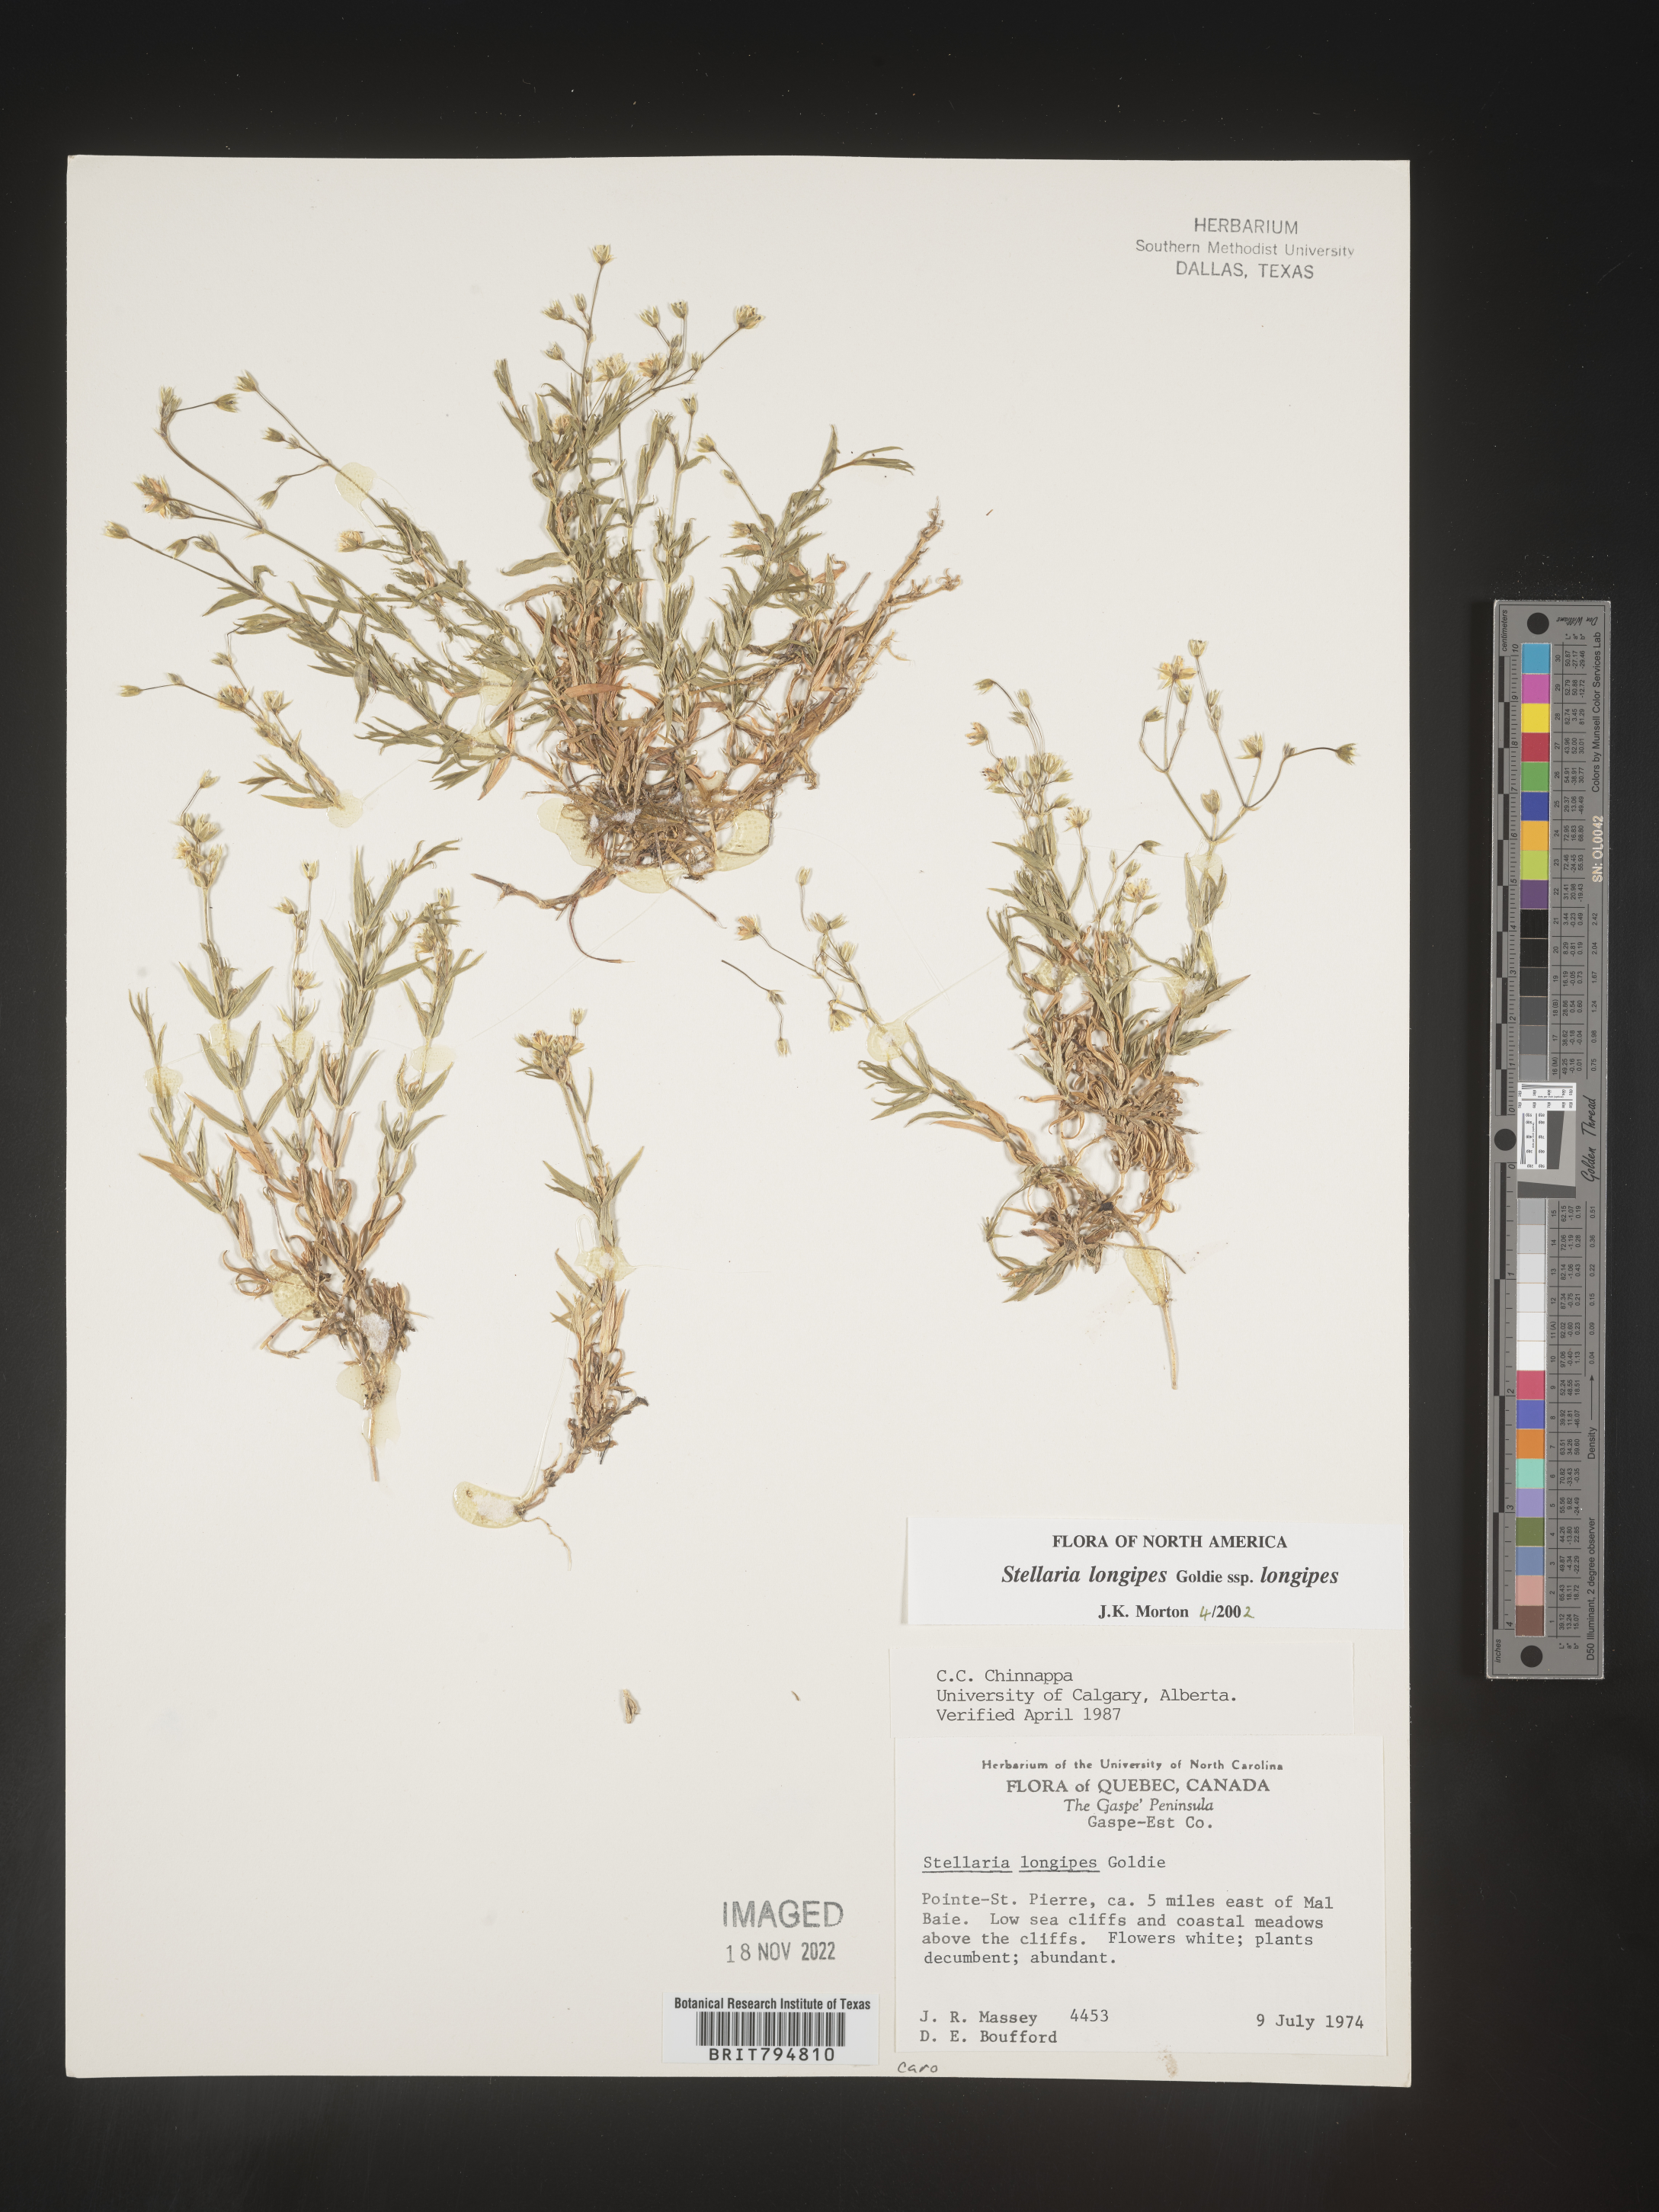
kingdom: Plantae
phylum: Tracheophyta
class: Magnoliopsida
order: Caryophyllales
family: Caryophyllaceae
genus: Stellaria
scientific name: Stellaria longipes
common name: Goldie's starwort
